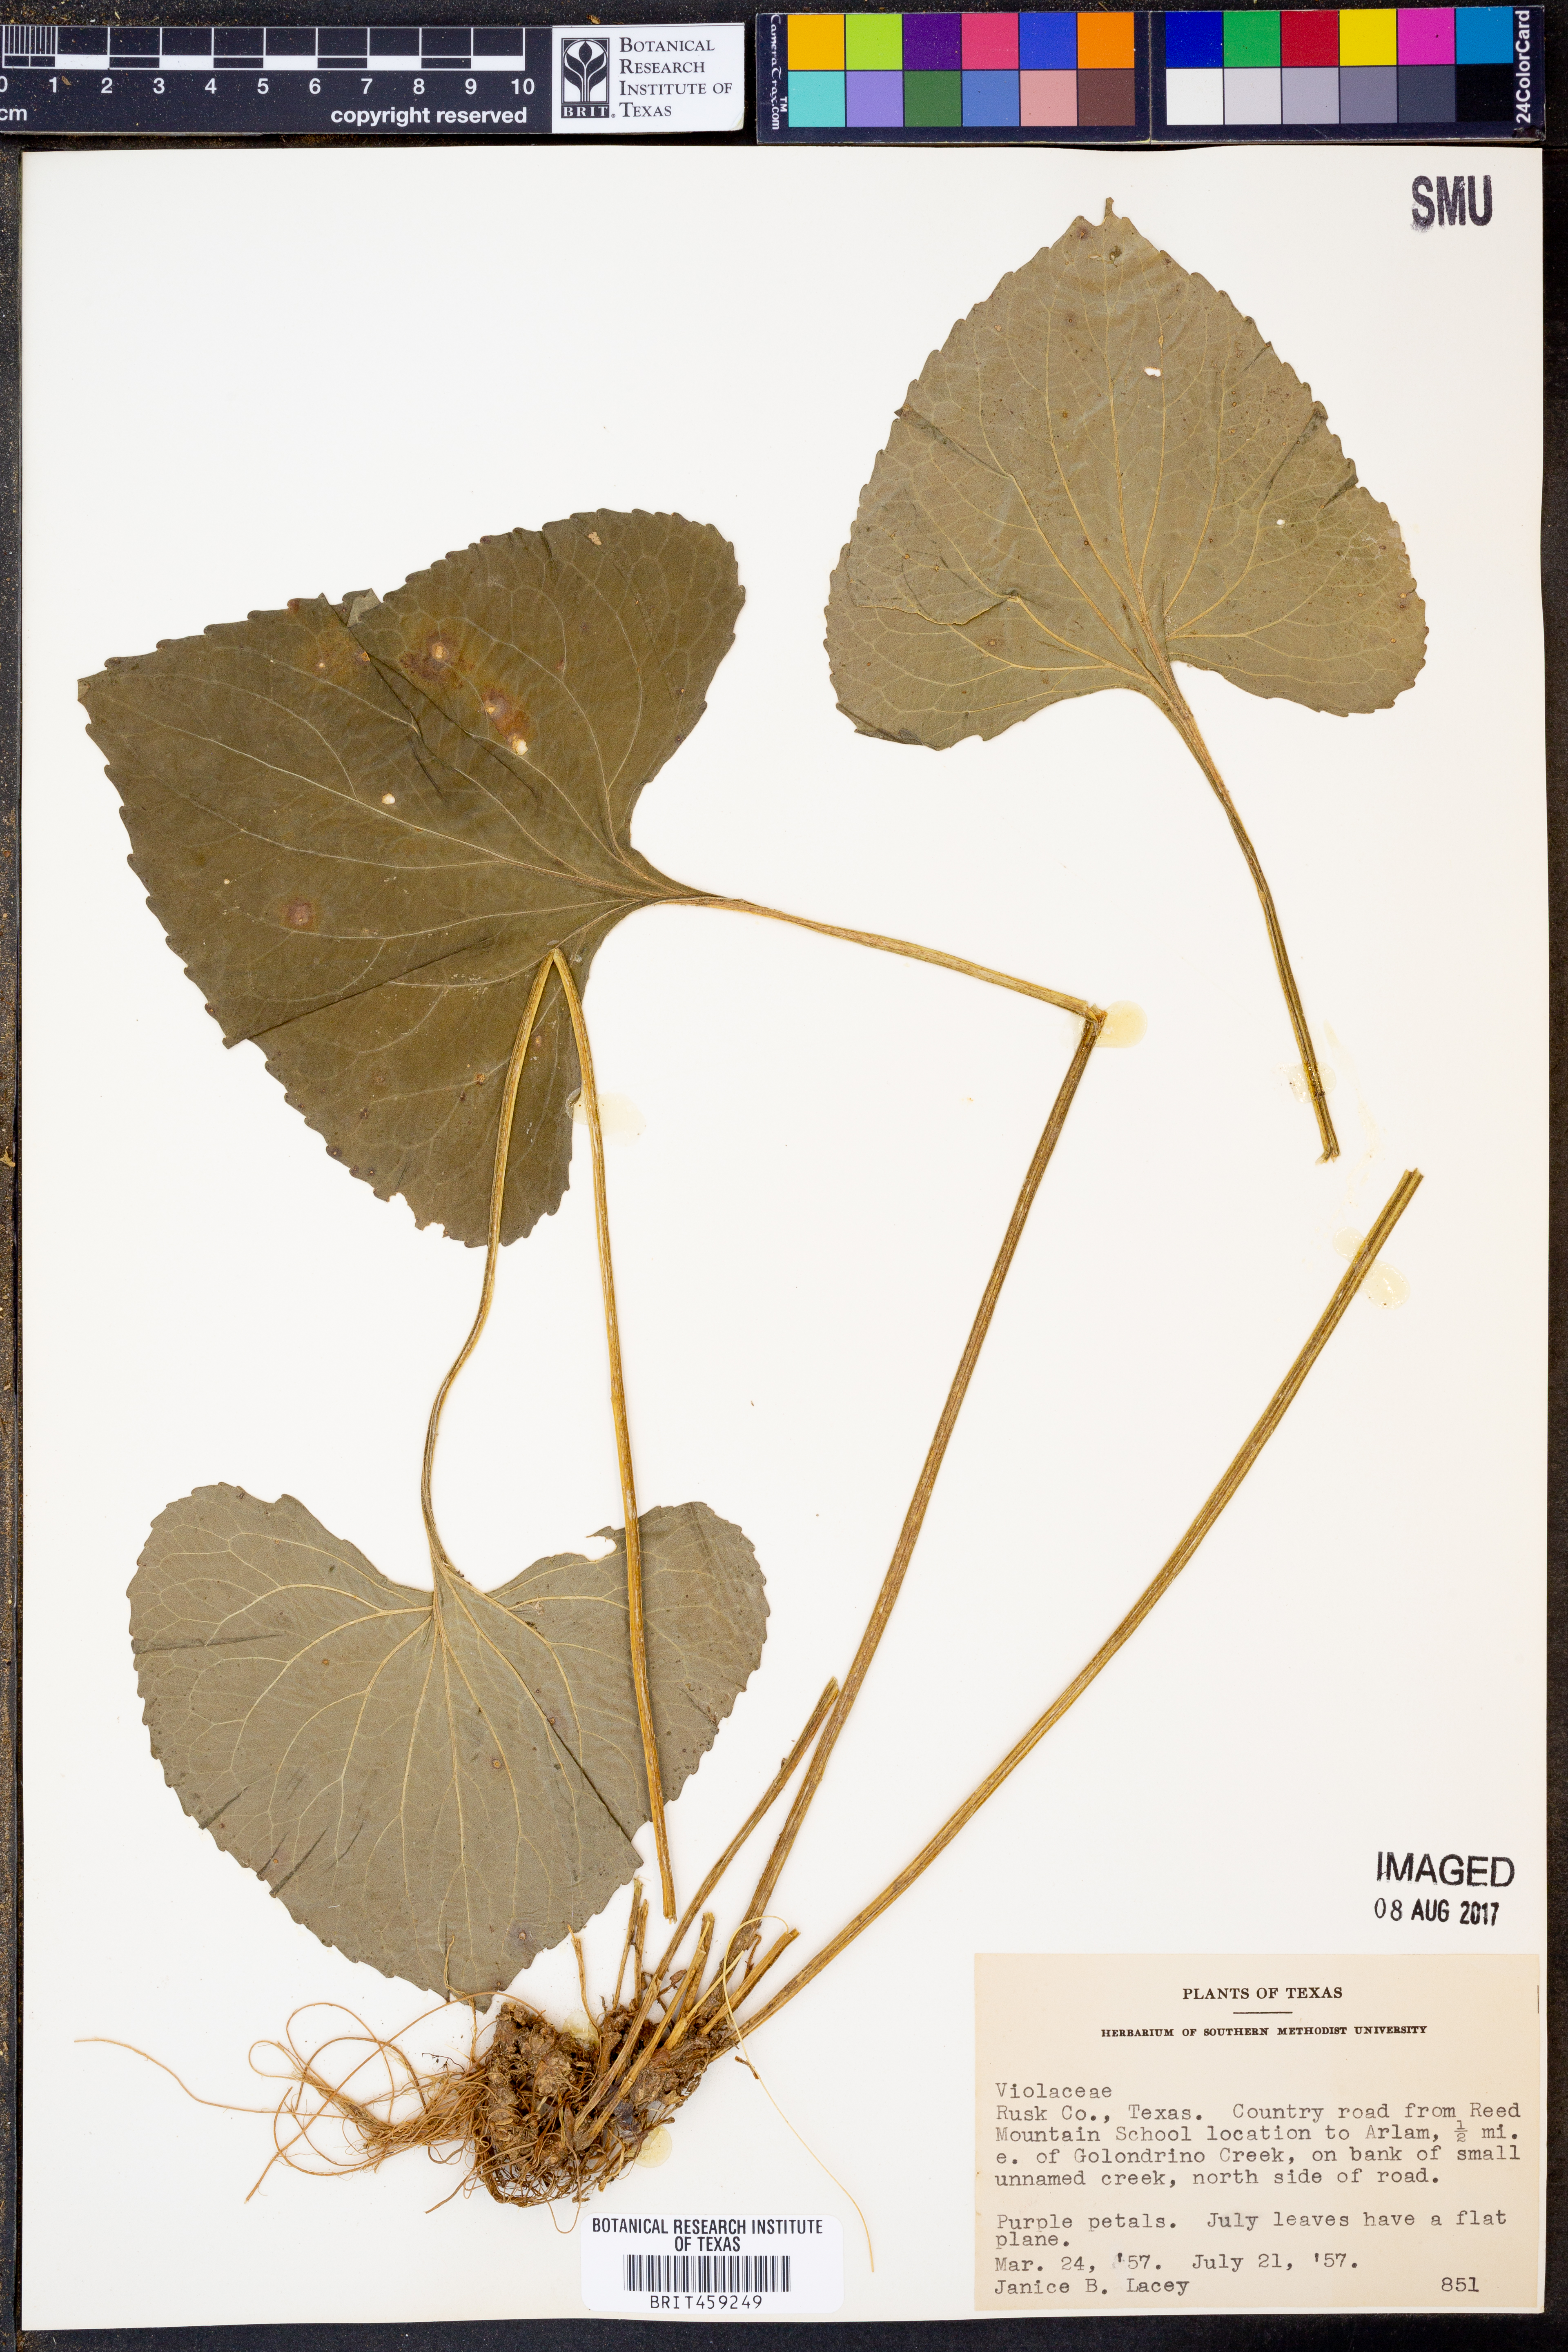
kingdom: Plantae
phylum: Tracheophyta
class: Magnoliopsida
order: Malpighiales
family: Violaceae
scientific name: Violaceae
